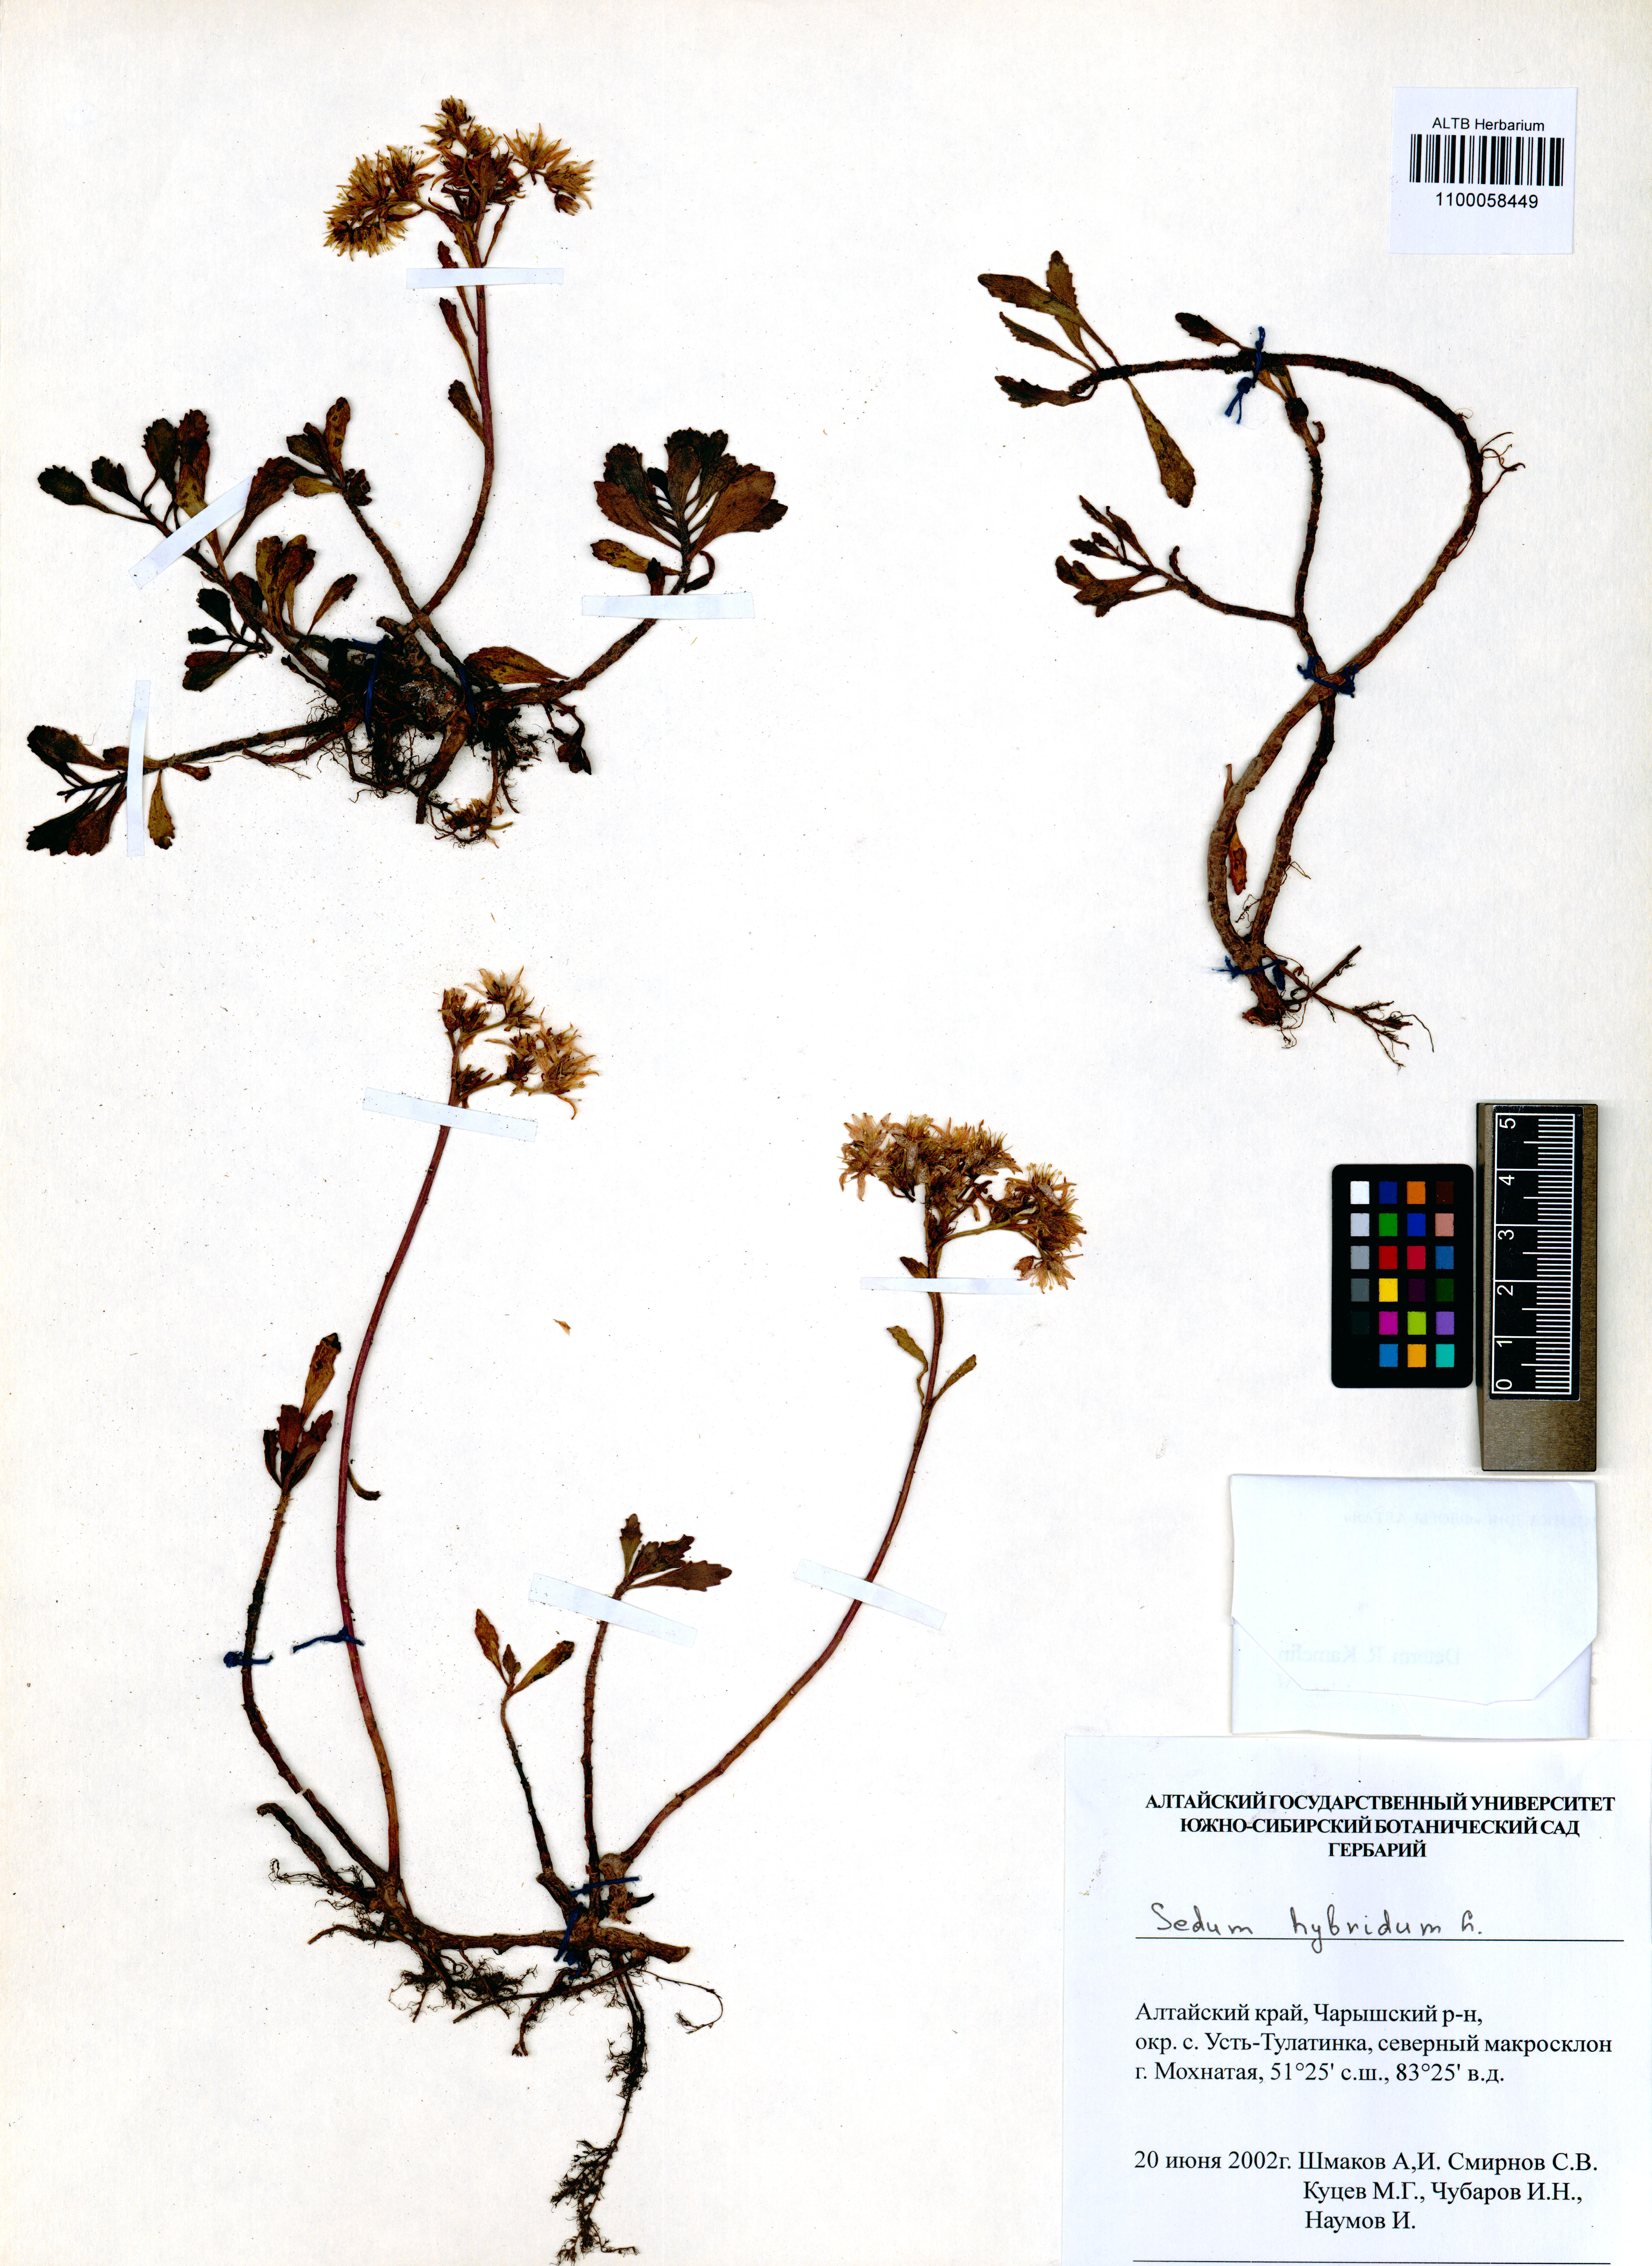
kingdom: Plantae
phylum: Tracheophyta
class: Magnoliopsida
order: Saxifragales
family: Crassulaceae
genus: Phedimus
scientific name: Phedimus hybridus
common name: Hybrid stonecrop
